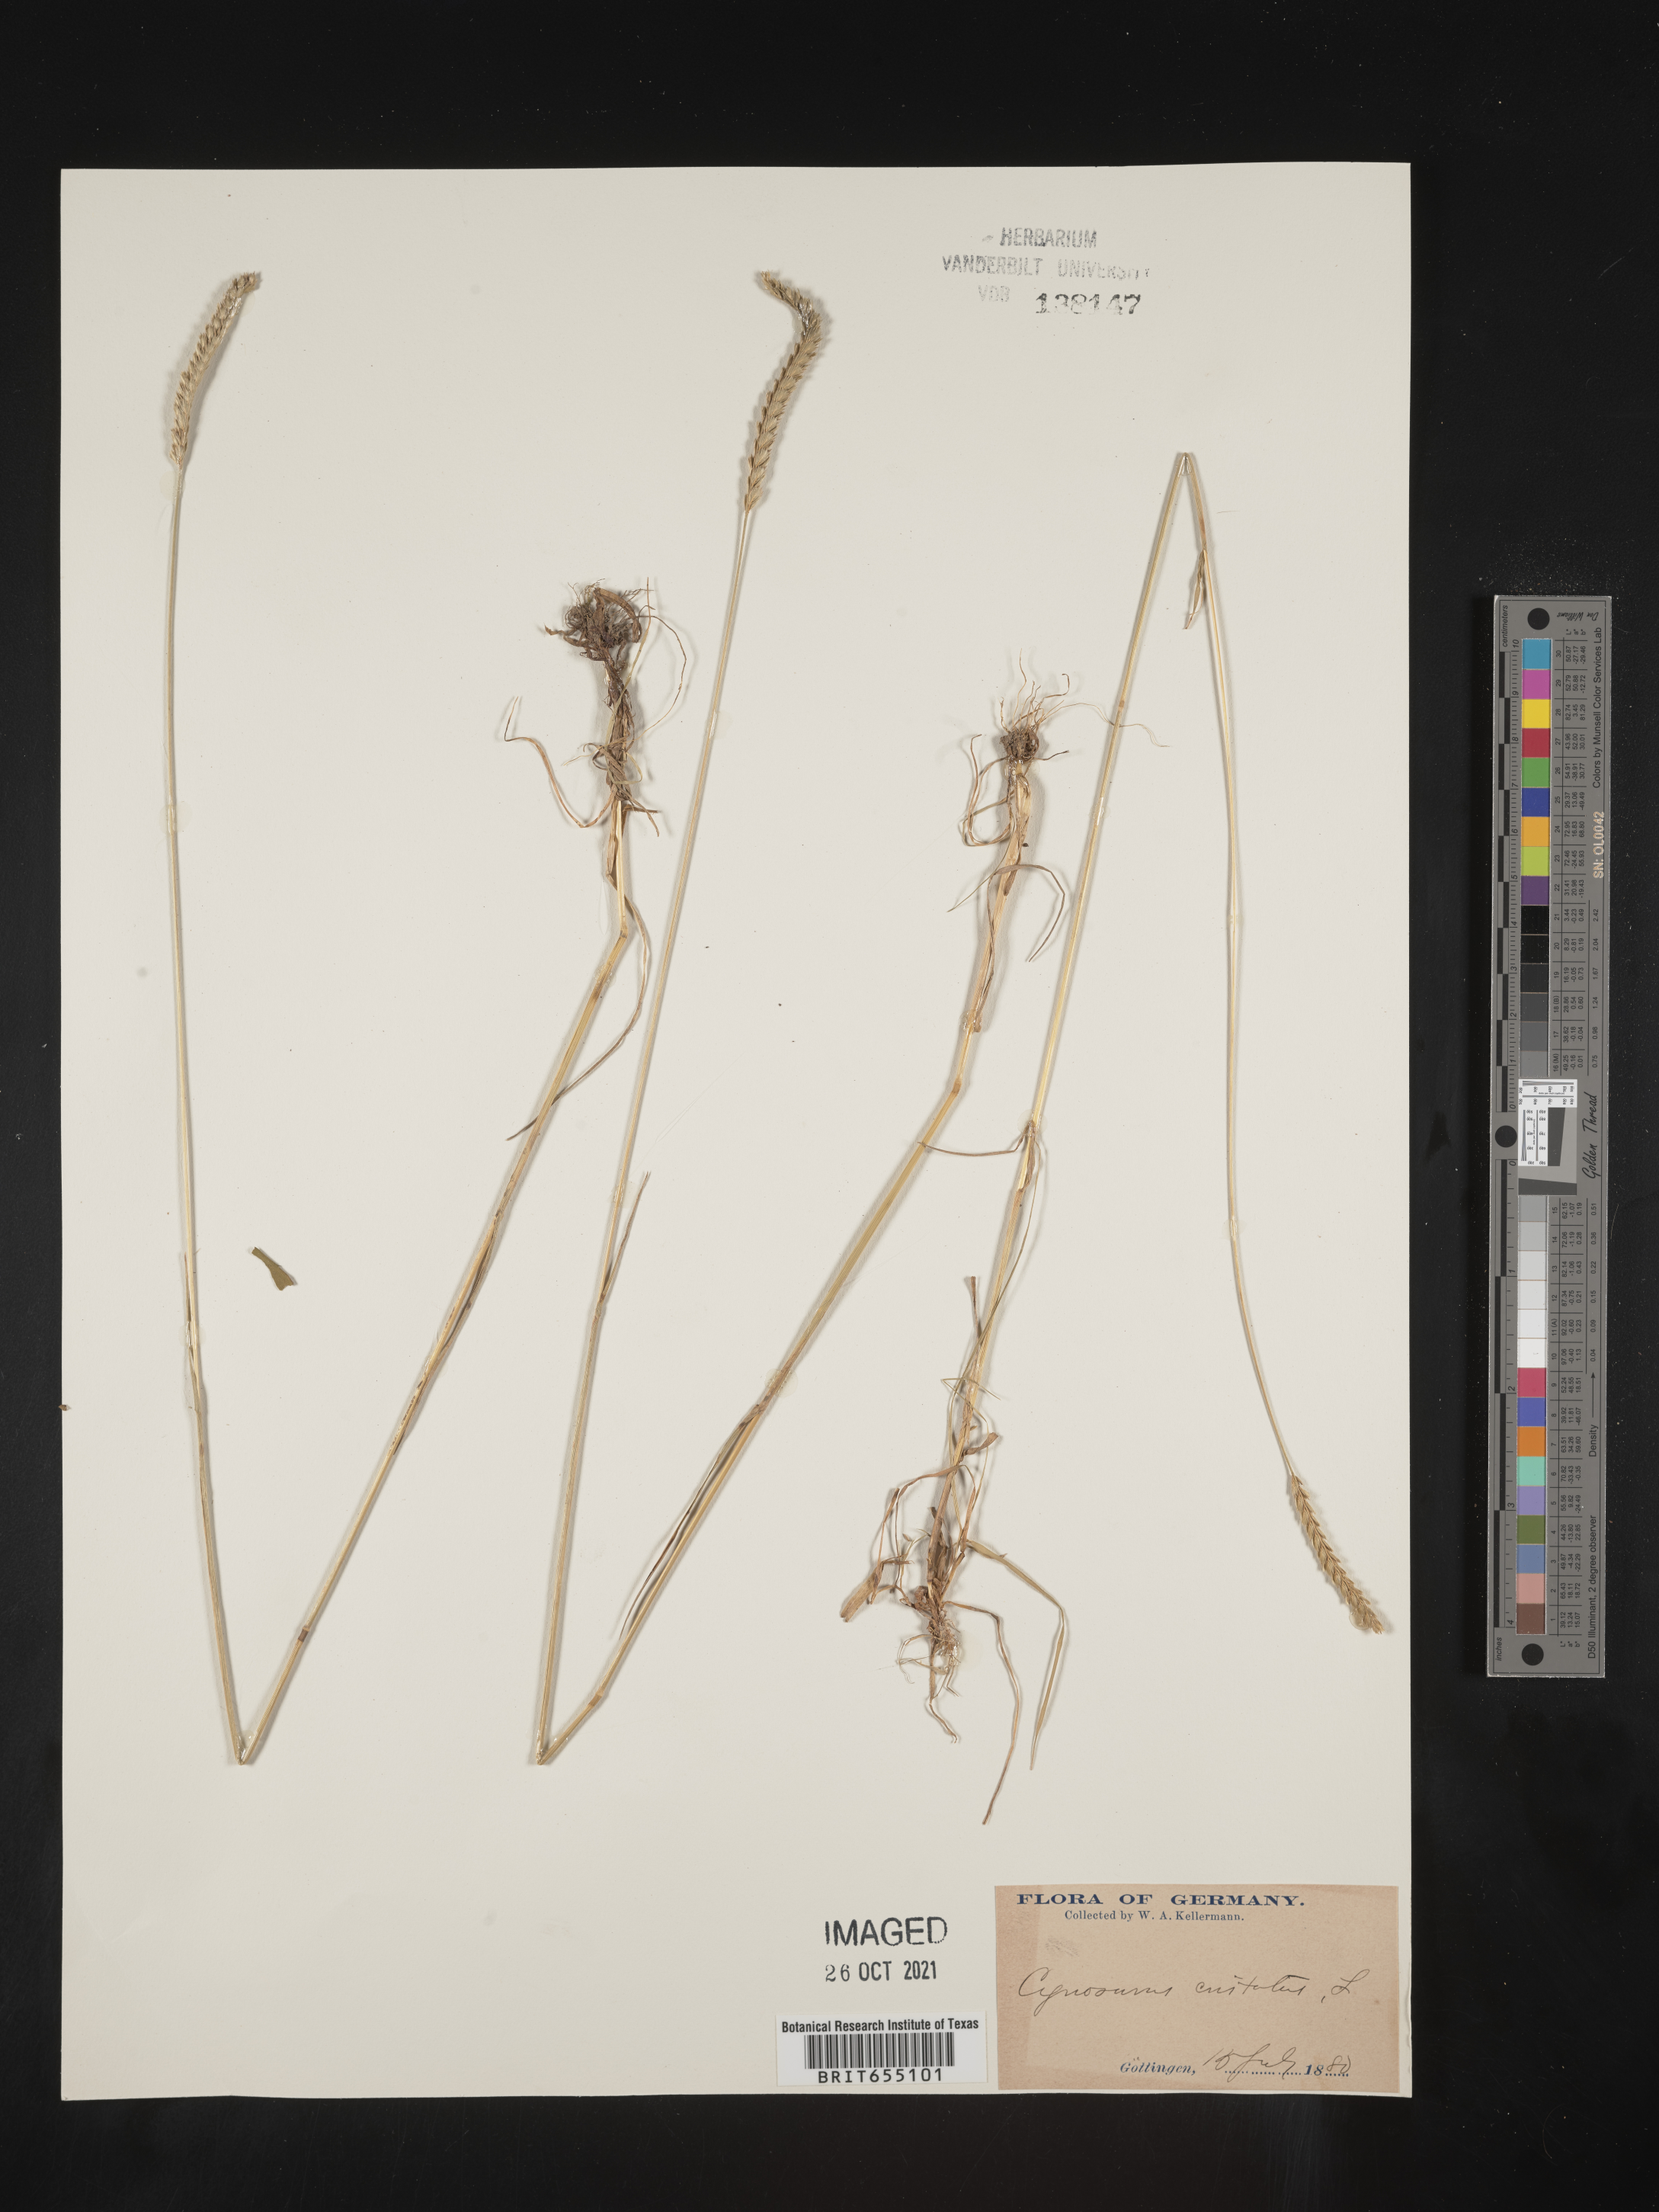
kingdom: Plantae
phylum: Tracheophyta
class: Liliopsida
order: Poales
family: Poaceae
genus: Cynosurus
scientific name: Cynosurus
